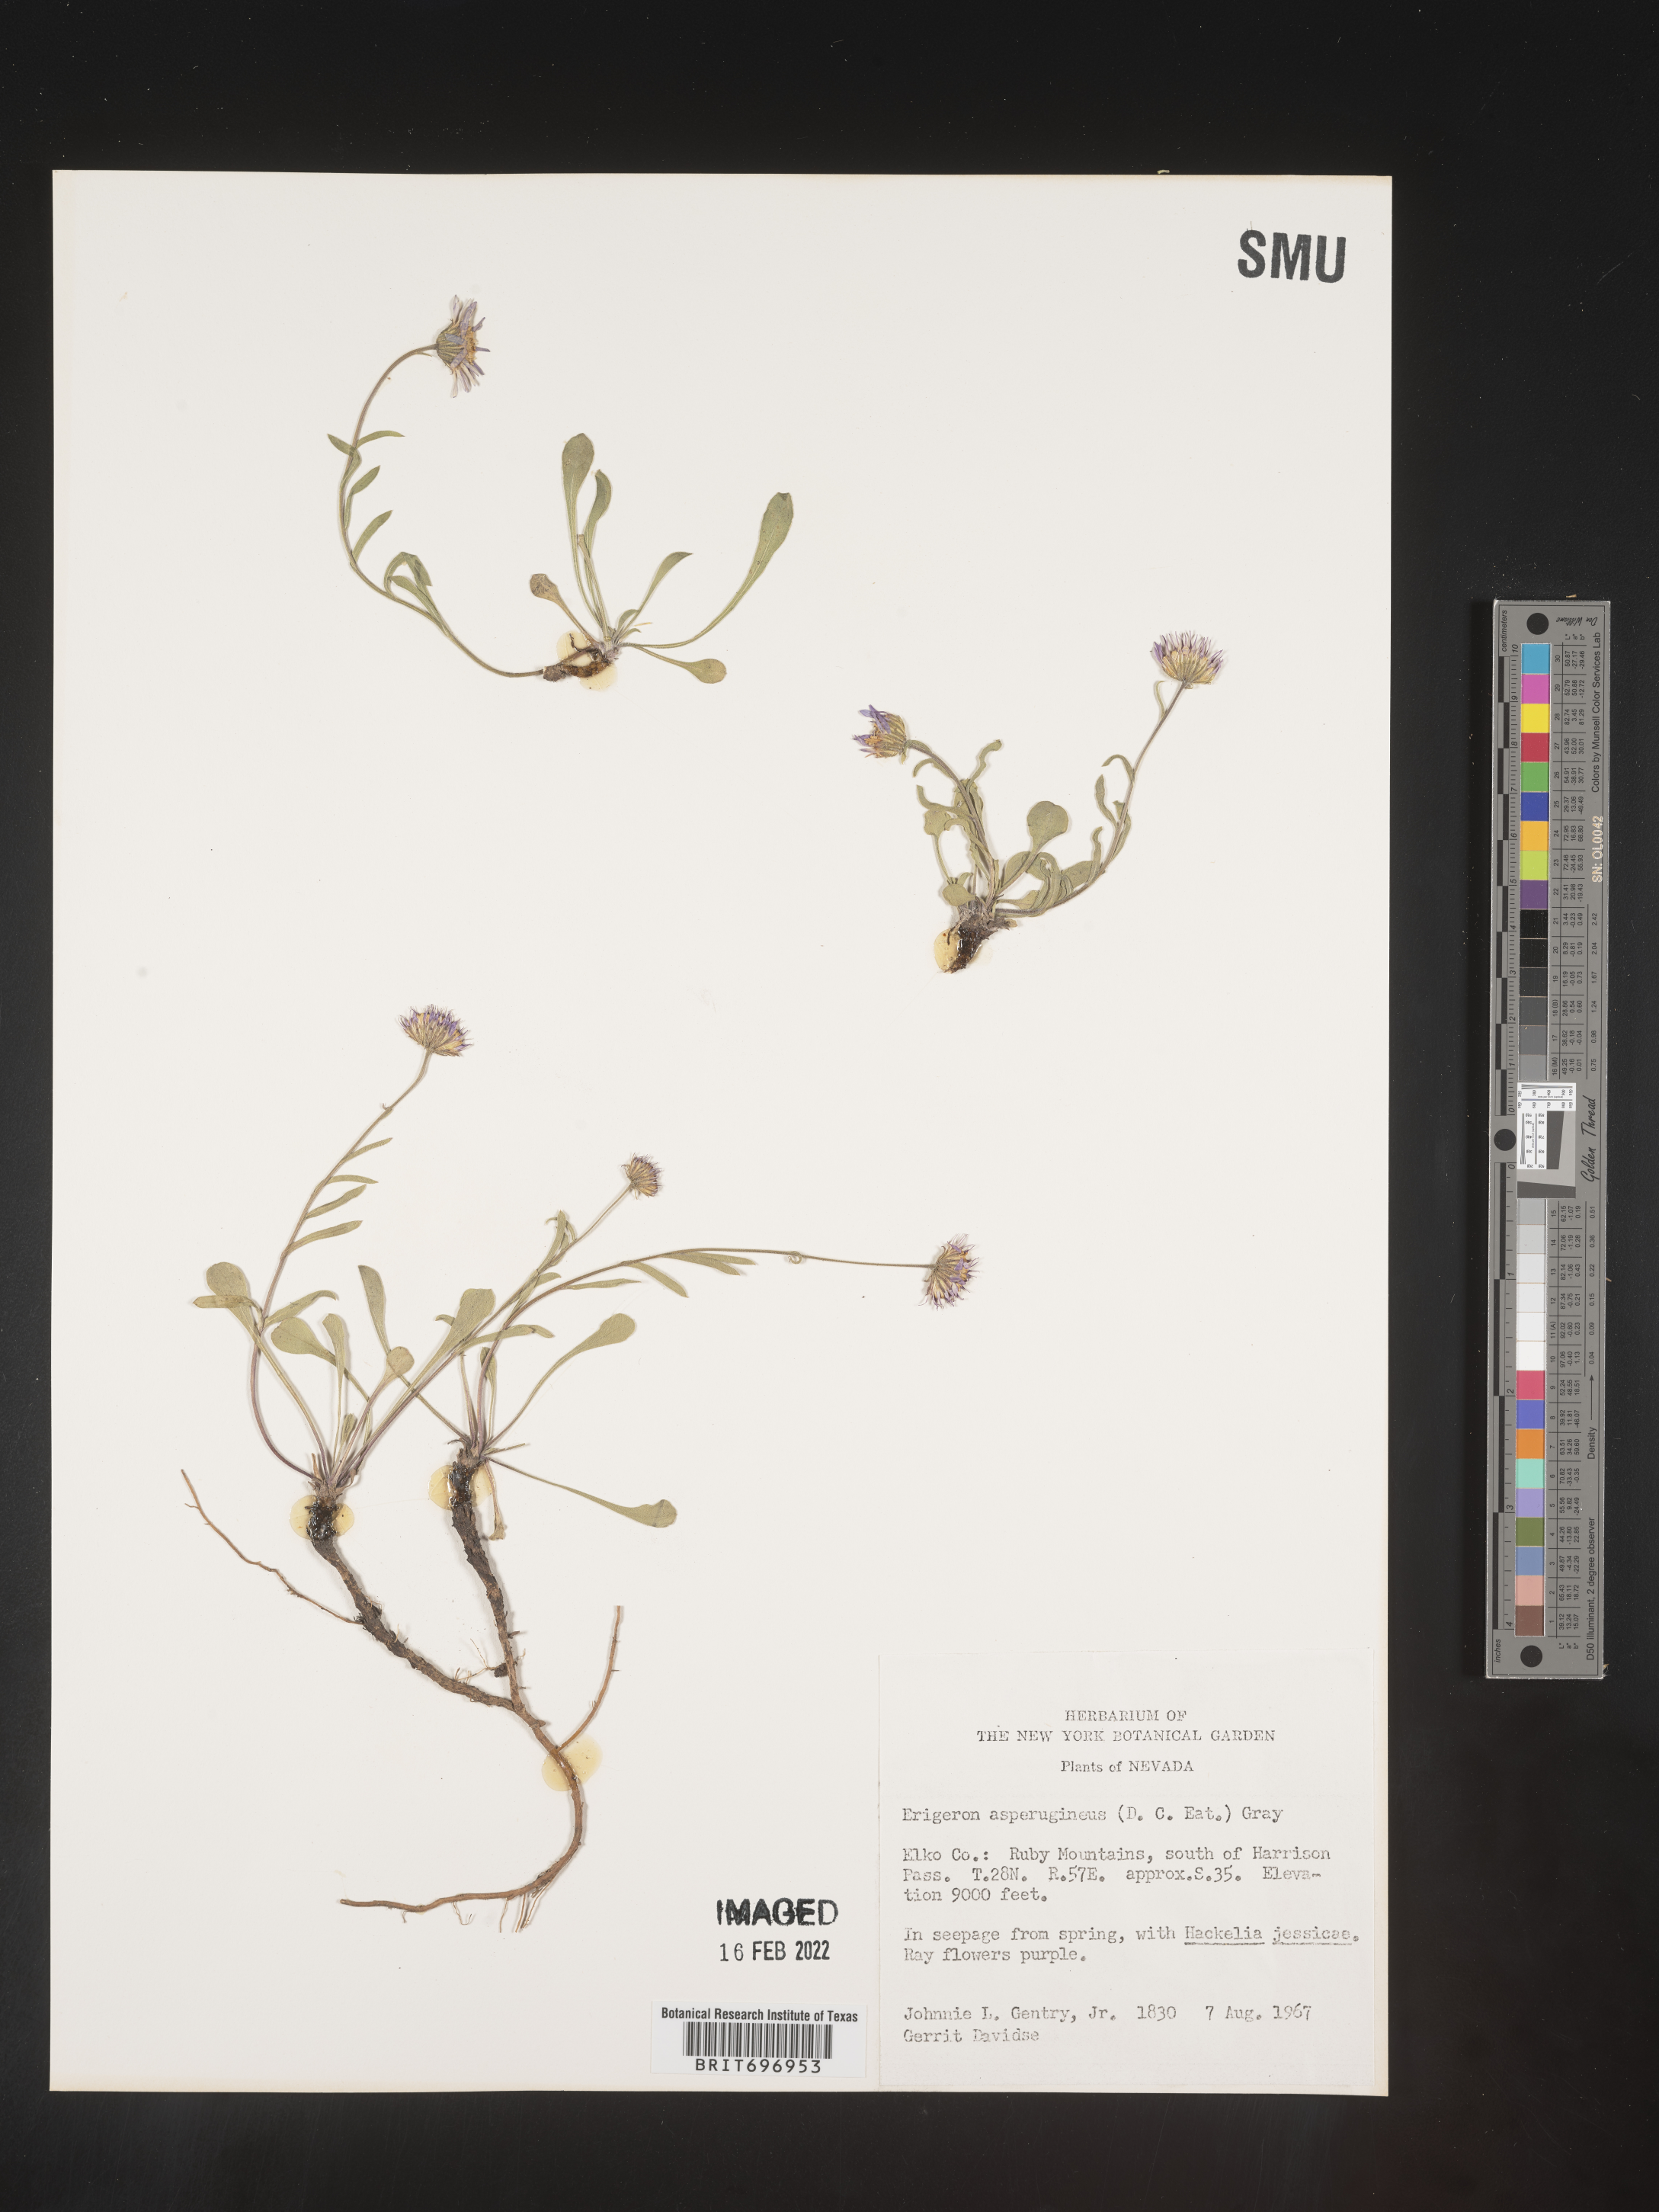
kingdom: Plantae
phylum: Tracheophyta
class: Magnoliopsida
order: Asterales
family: Asteraceae
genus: Erigeron
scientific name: Erigeron asperugineus
